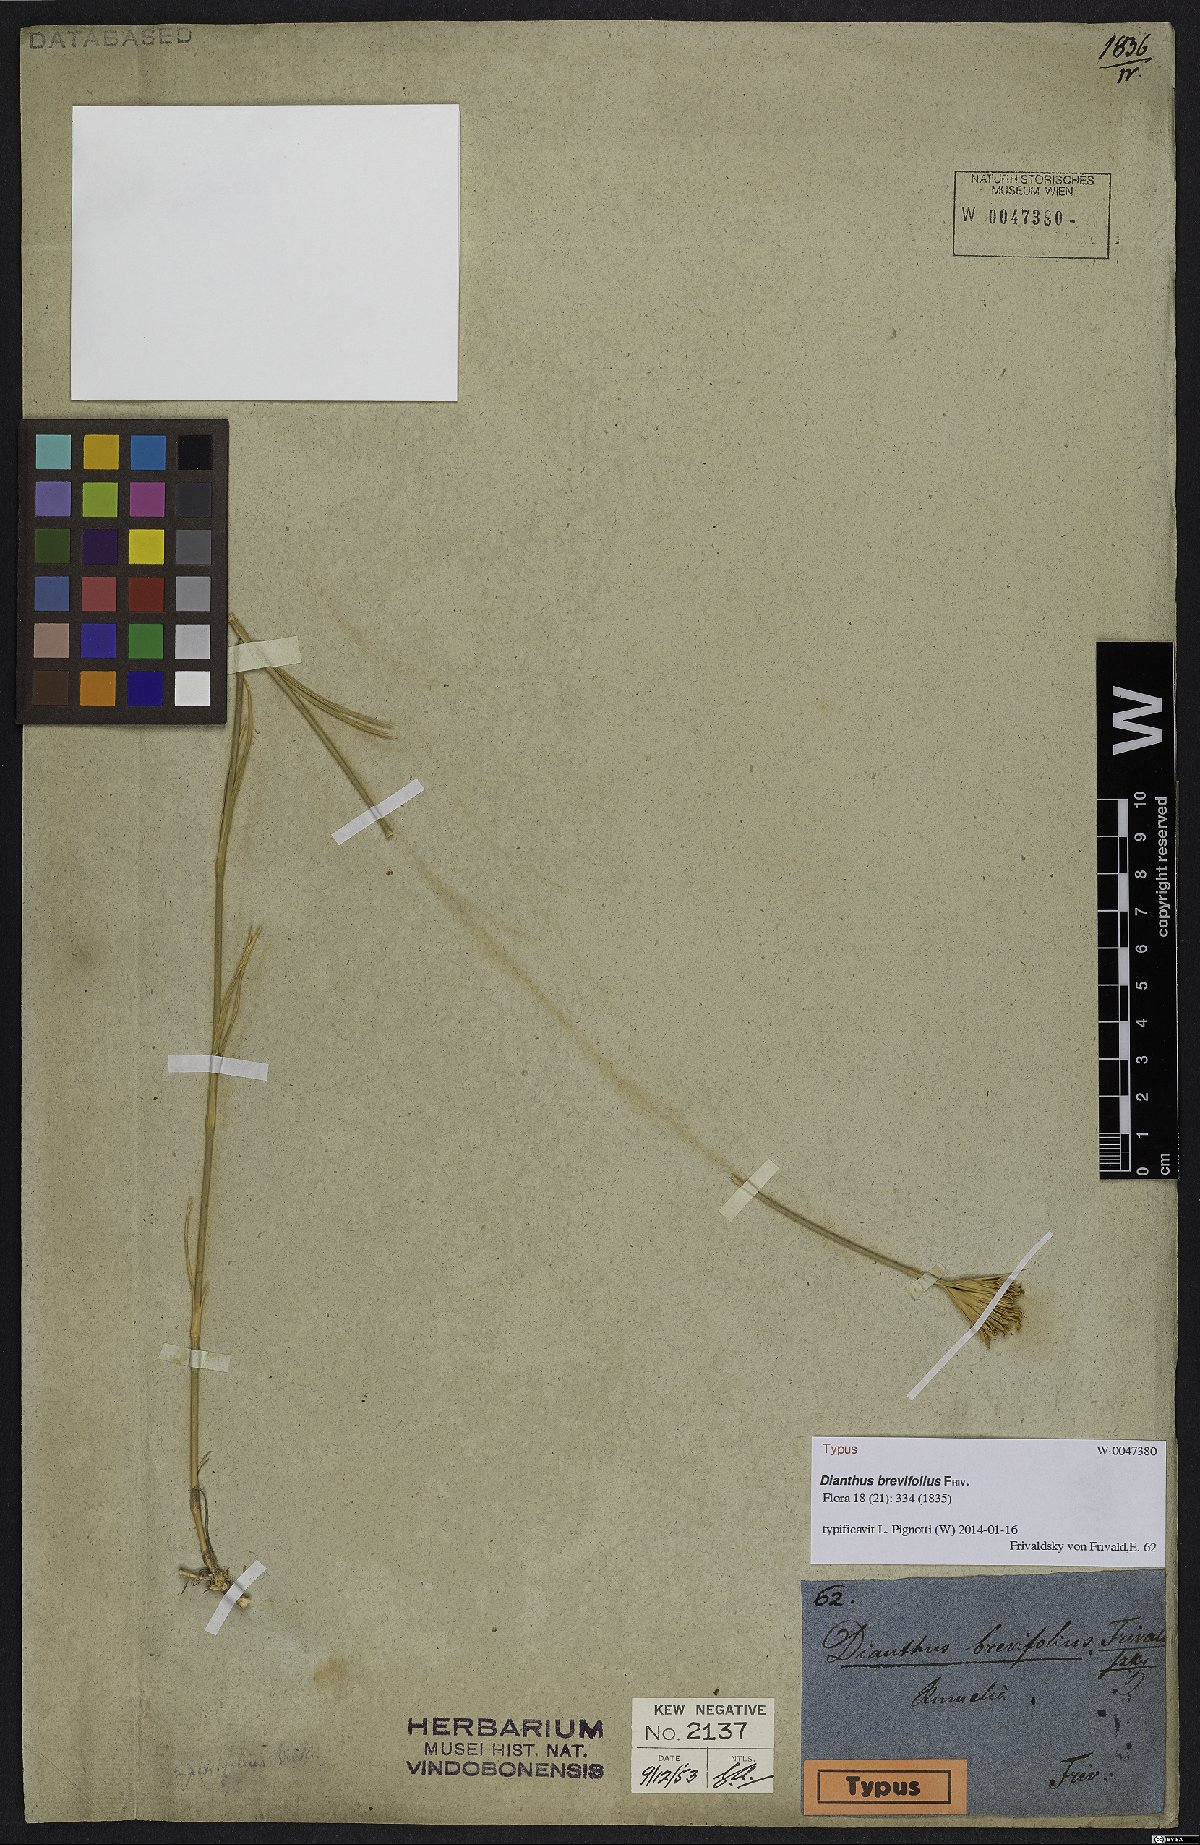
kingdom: Plantae
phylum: Tracheophyta
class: Magnoliopsida
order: Caryophyllales
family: Caryophyllaceae
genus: Dianthus
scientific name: Dianthus pinifolius
